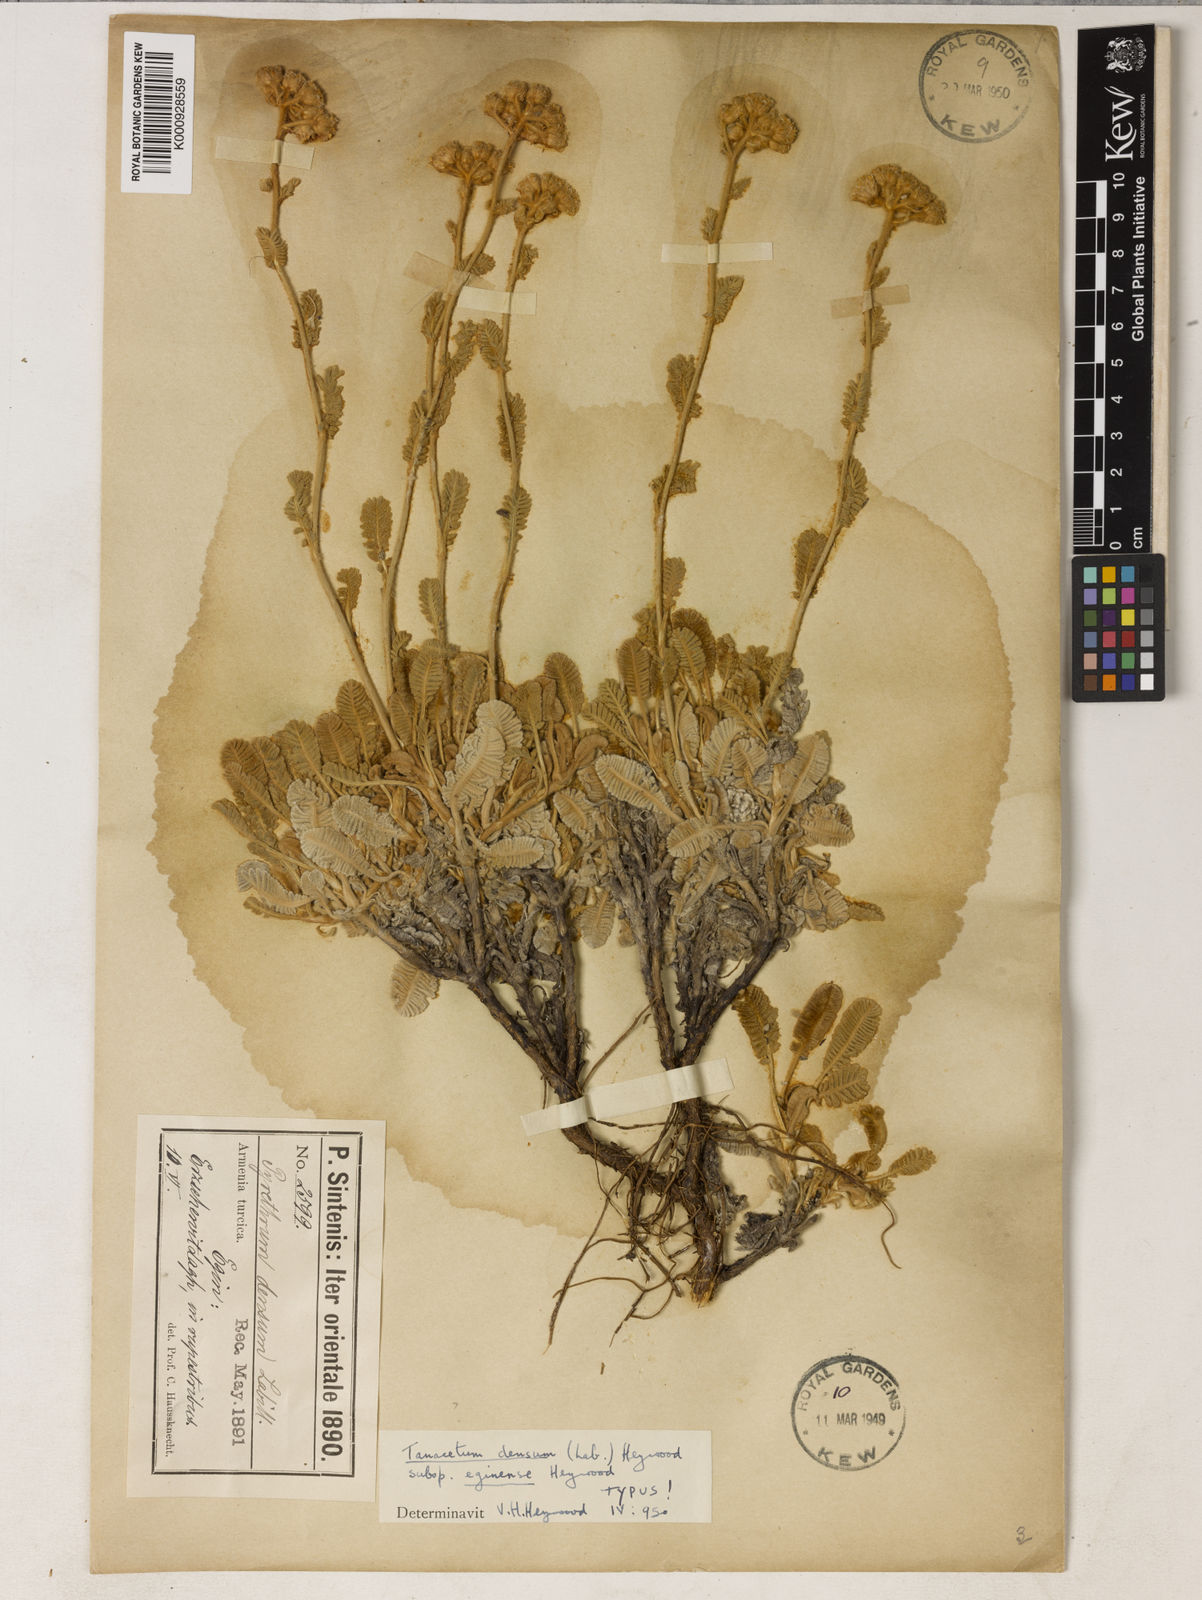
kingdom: Plantae
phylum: Tracheophyta
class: Magnoliopsida
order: Asterales
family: Asteraceae
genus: Tanacetum
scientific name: Tanacetum densum
